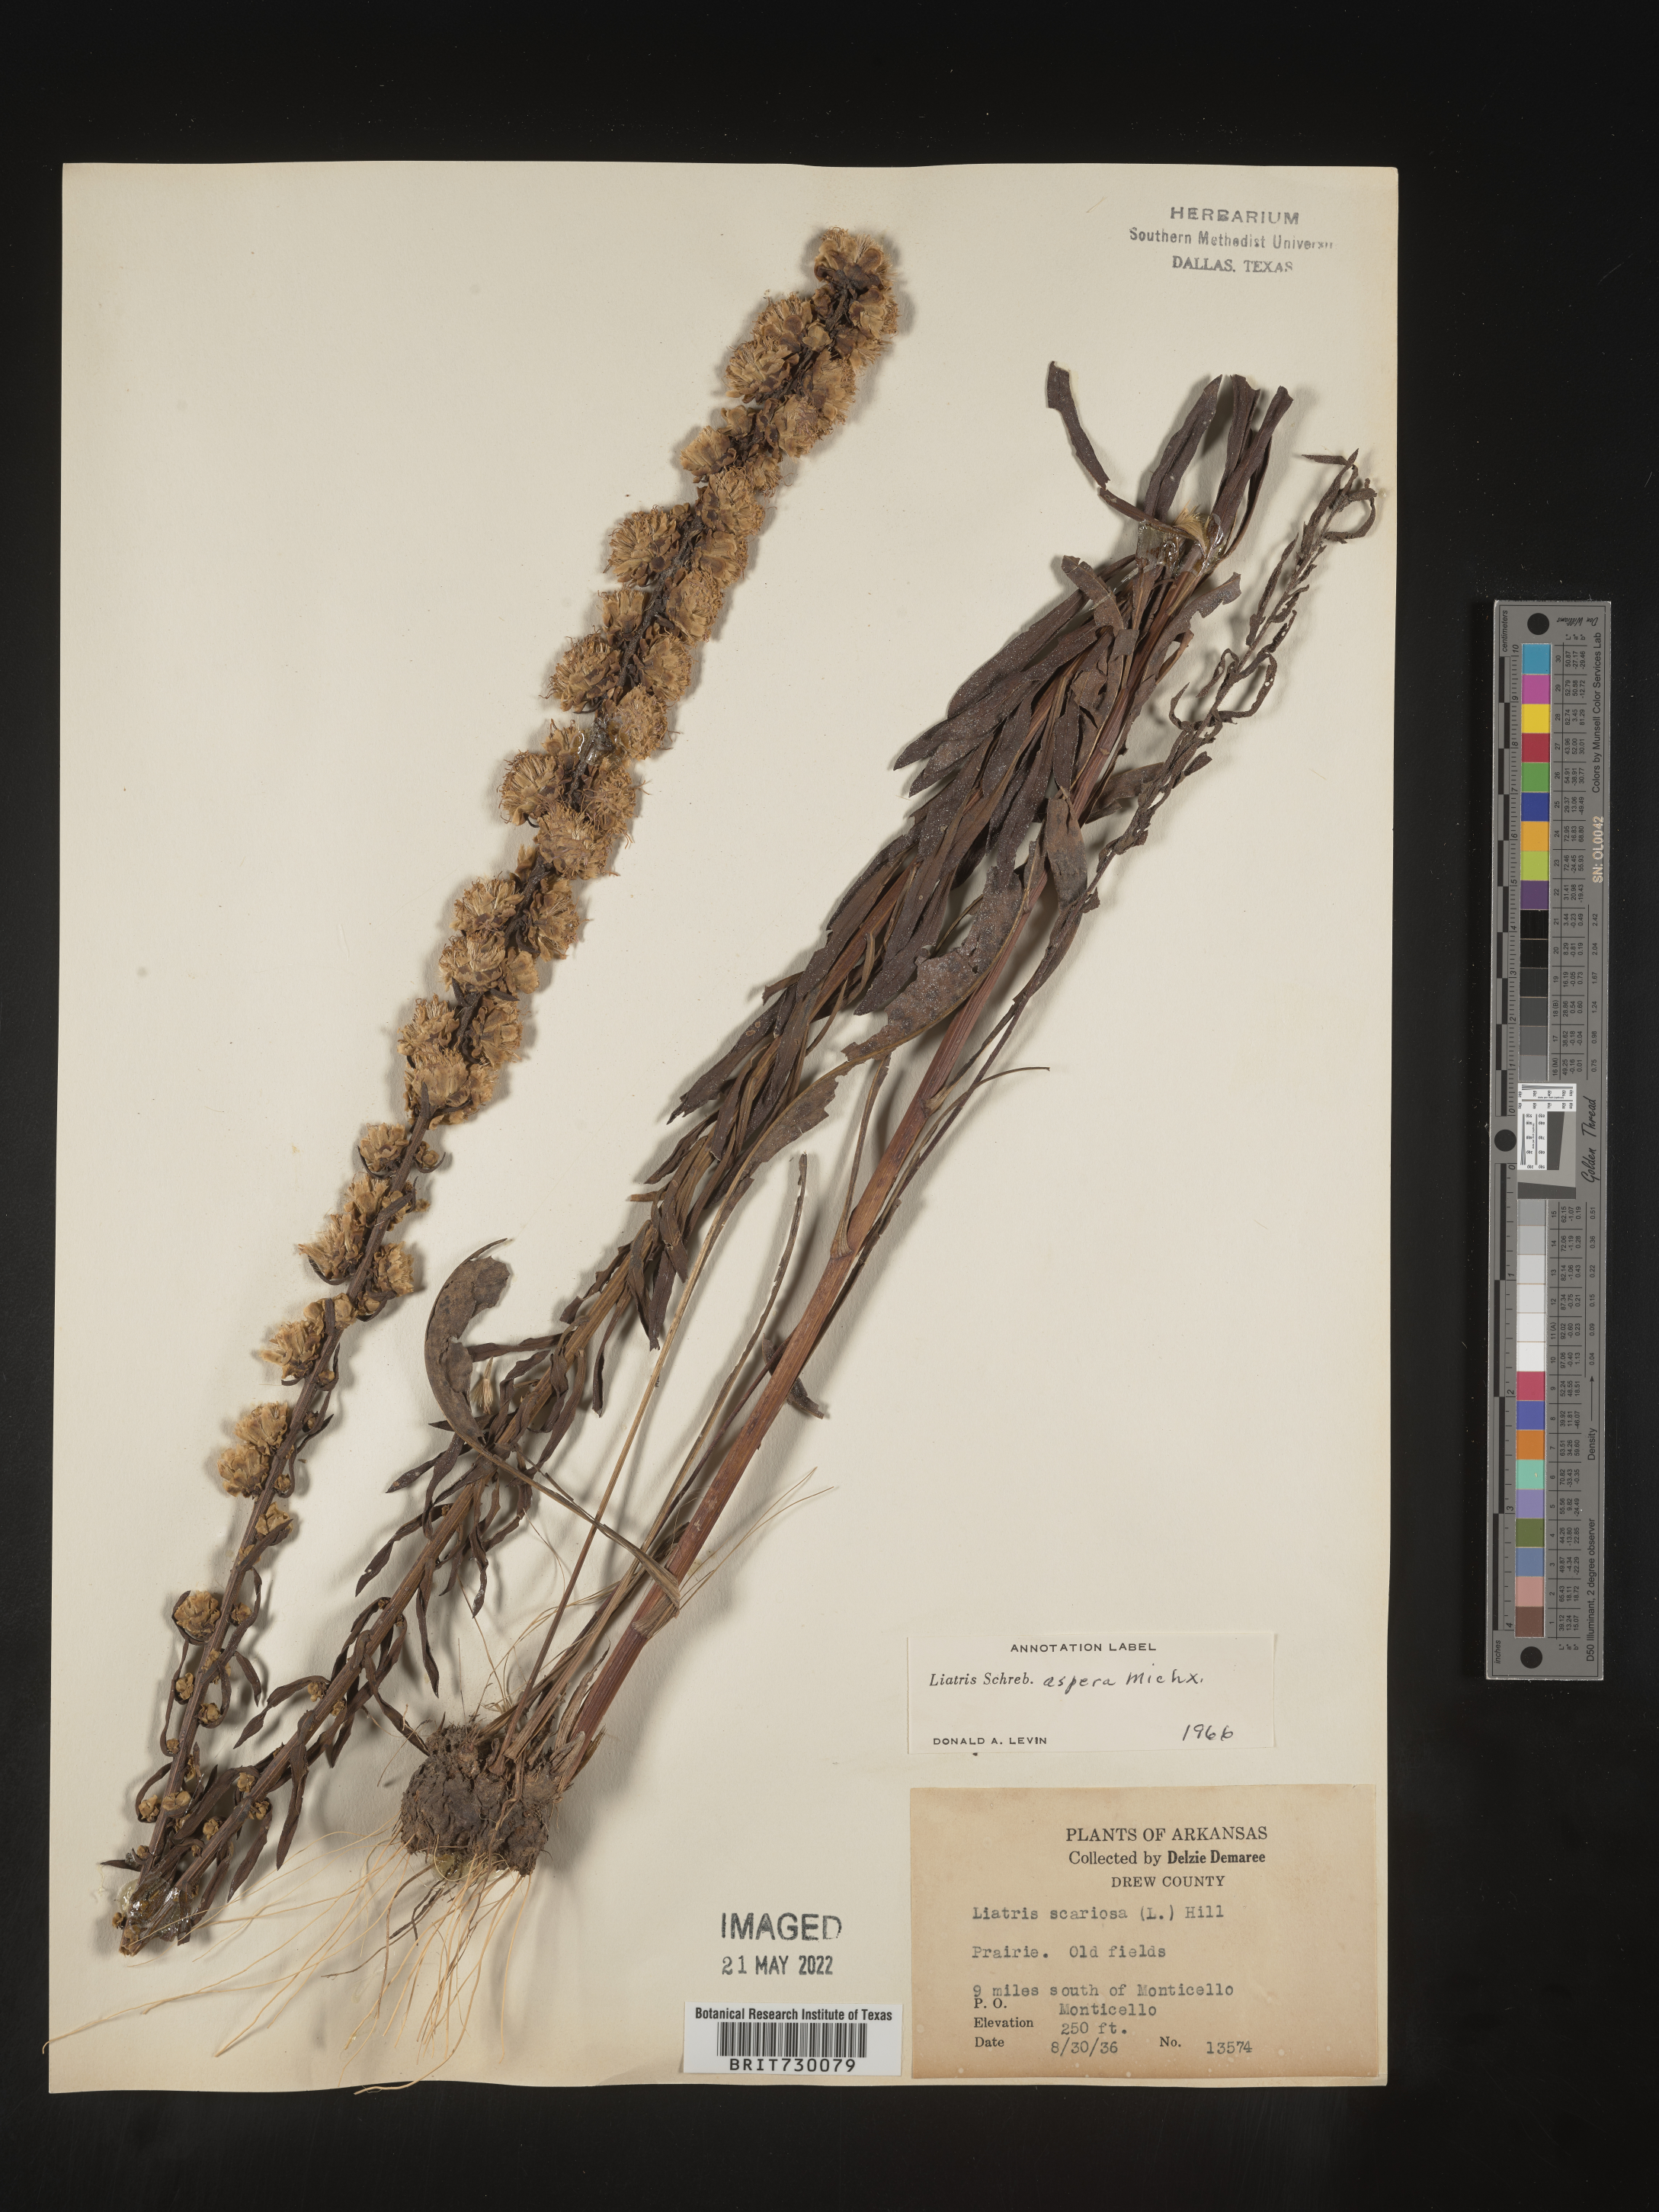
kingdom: Plantae
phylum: Tracheophyta
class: Magnoliopsida
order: Asterales
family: Asteraceae
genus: Liatris
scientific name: Liatris aspera
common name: Lacerate blazing-star
